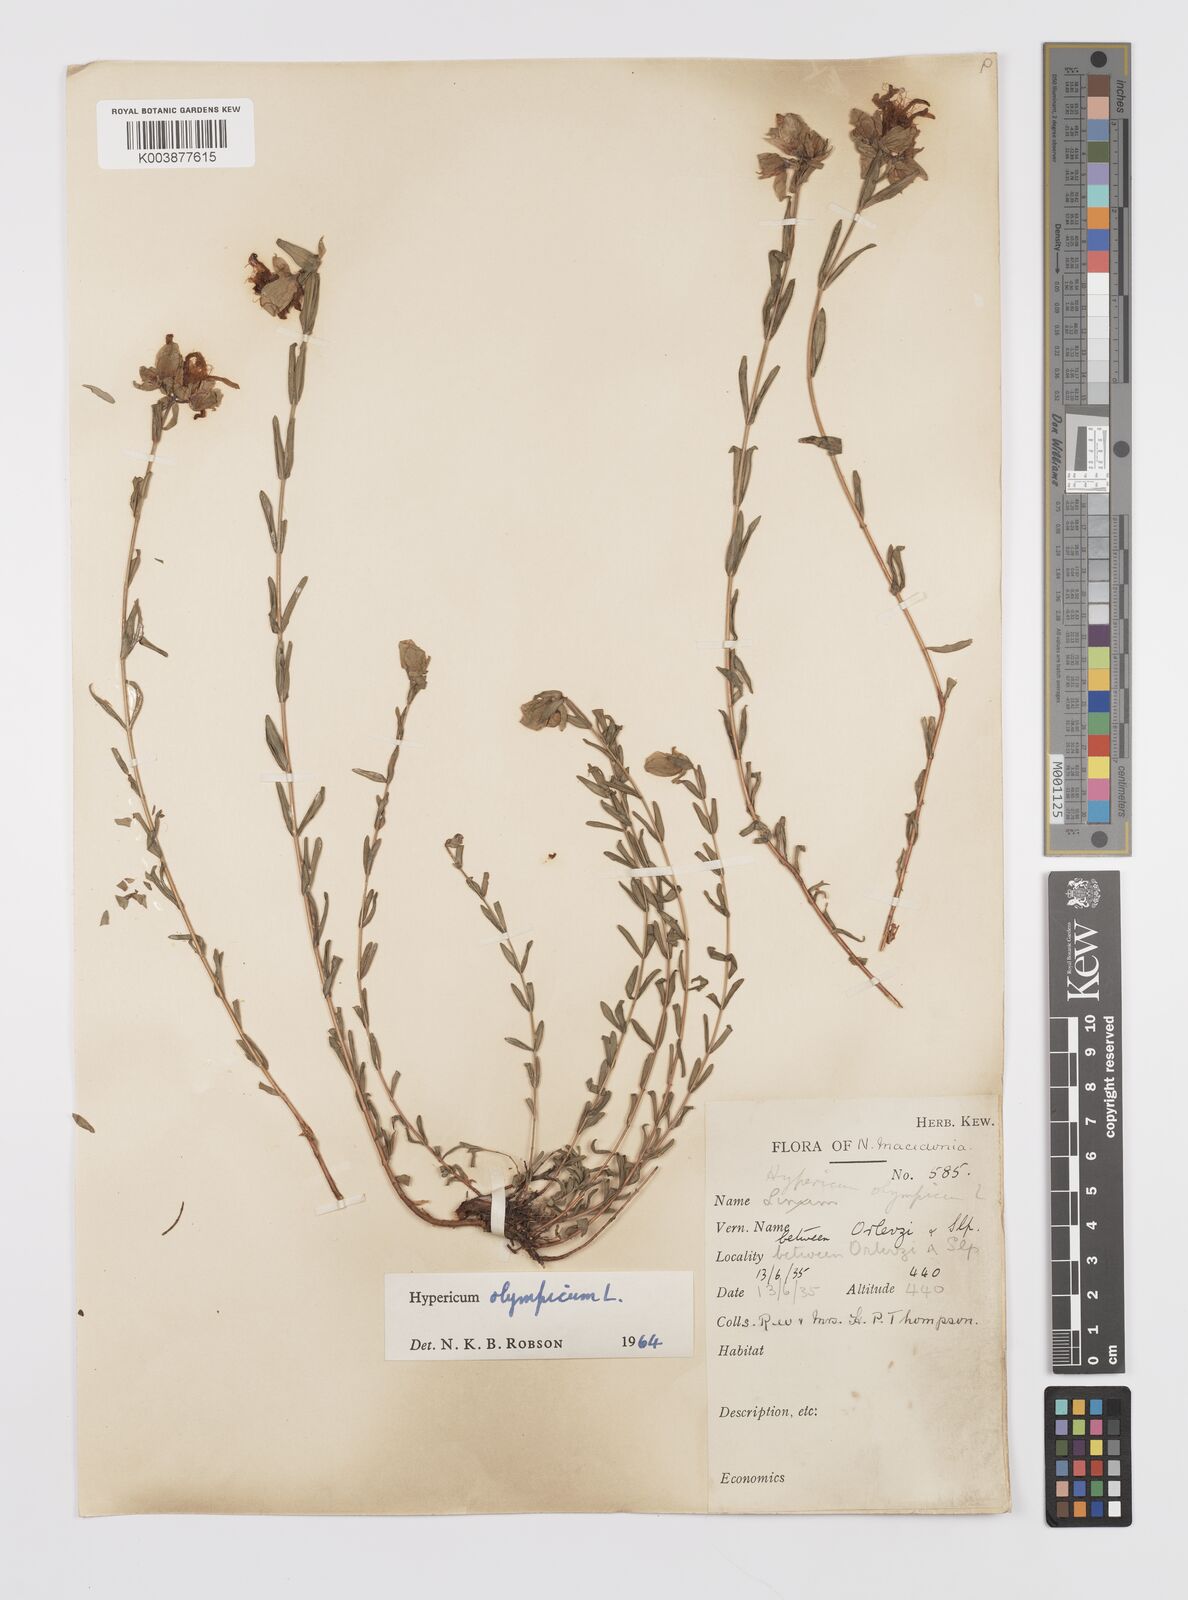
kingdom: Plantae
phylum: Tracheophyta
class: Magnoliopsida
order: Malpighiales
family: Hypericaceae
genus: Hypericum
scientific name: Hypericum olympicum
